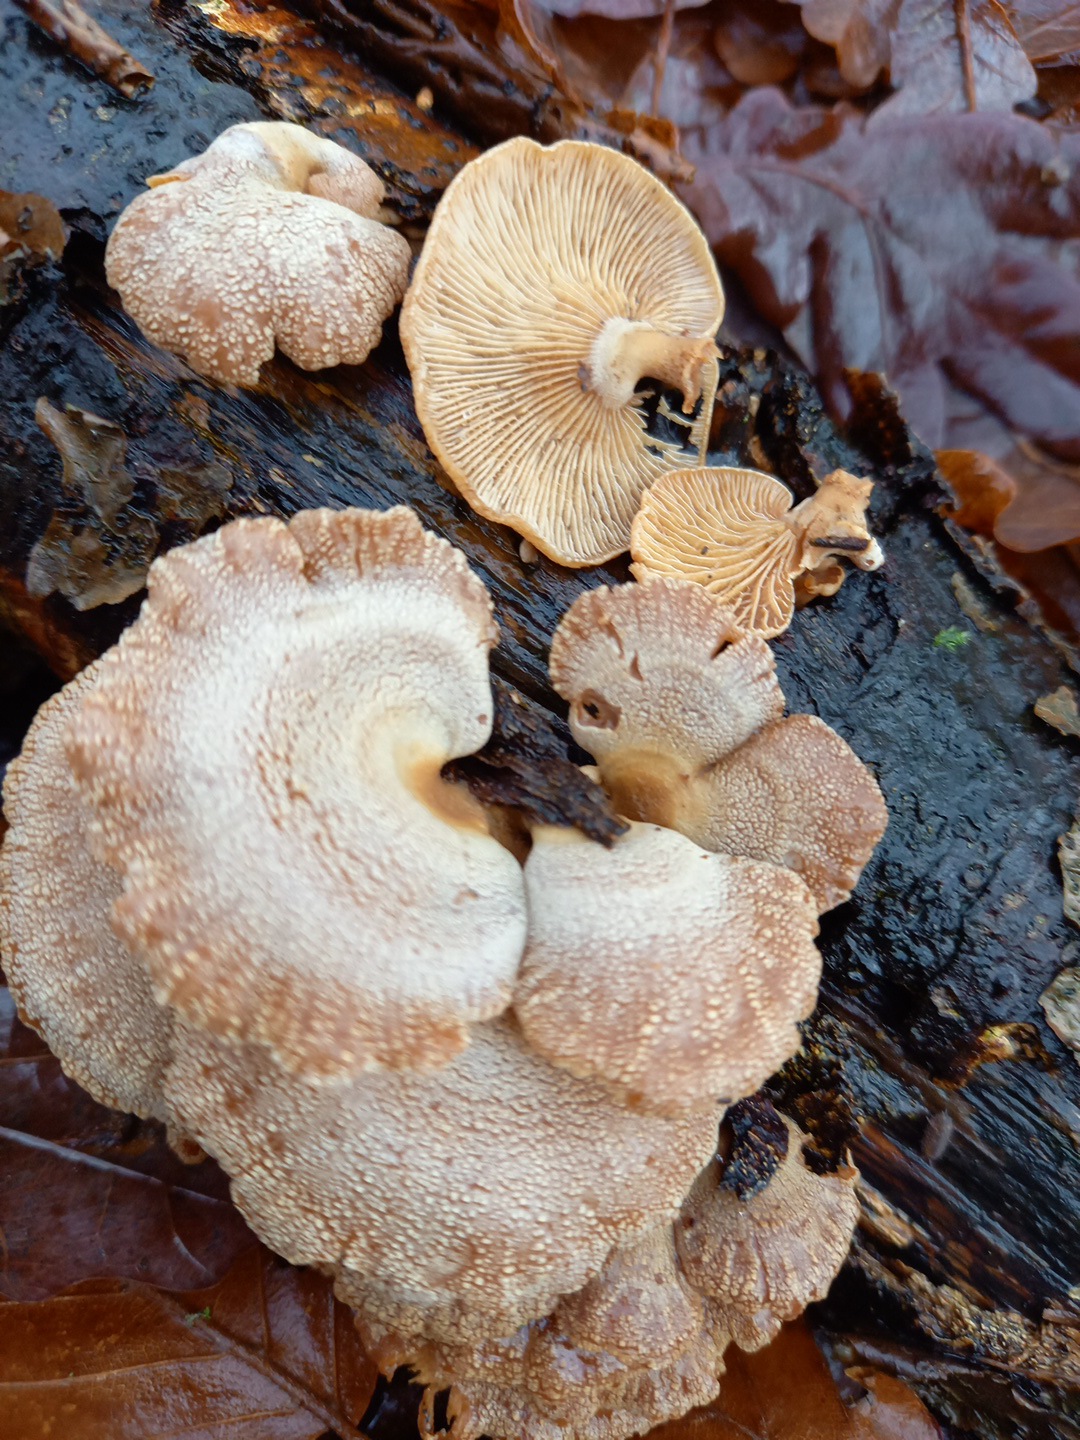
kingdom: Fungi
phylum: Basidiomycota
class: Agaricomycetes
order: Agaricales
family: Mycenaceae
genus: Panellus
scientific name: Panellus stipticus
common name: kliddet epaulethat
